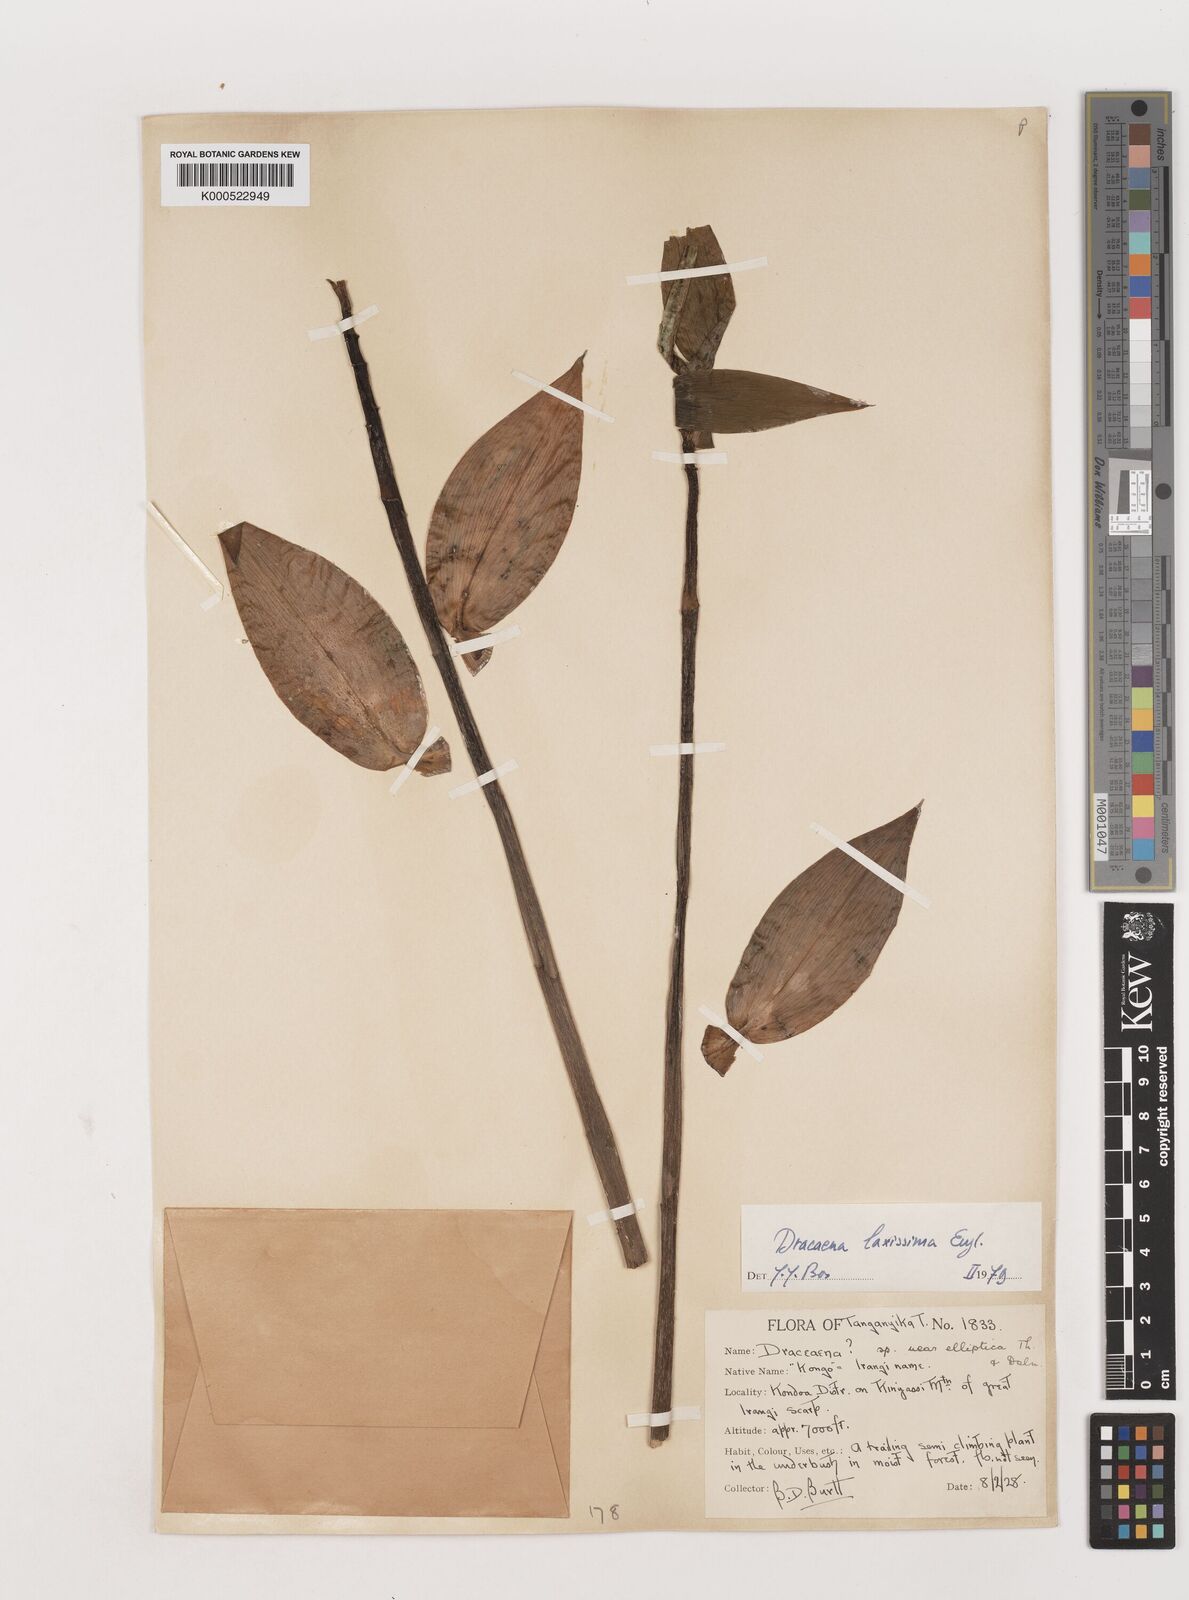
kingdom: Plantae
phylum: Tracheophyta
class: Liliopsida
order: Asparagales
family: Asparagaceae
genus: Dracaena
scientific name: Dracaena laxissima
